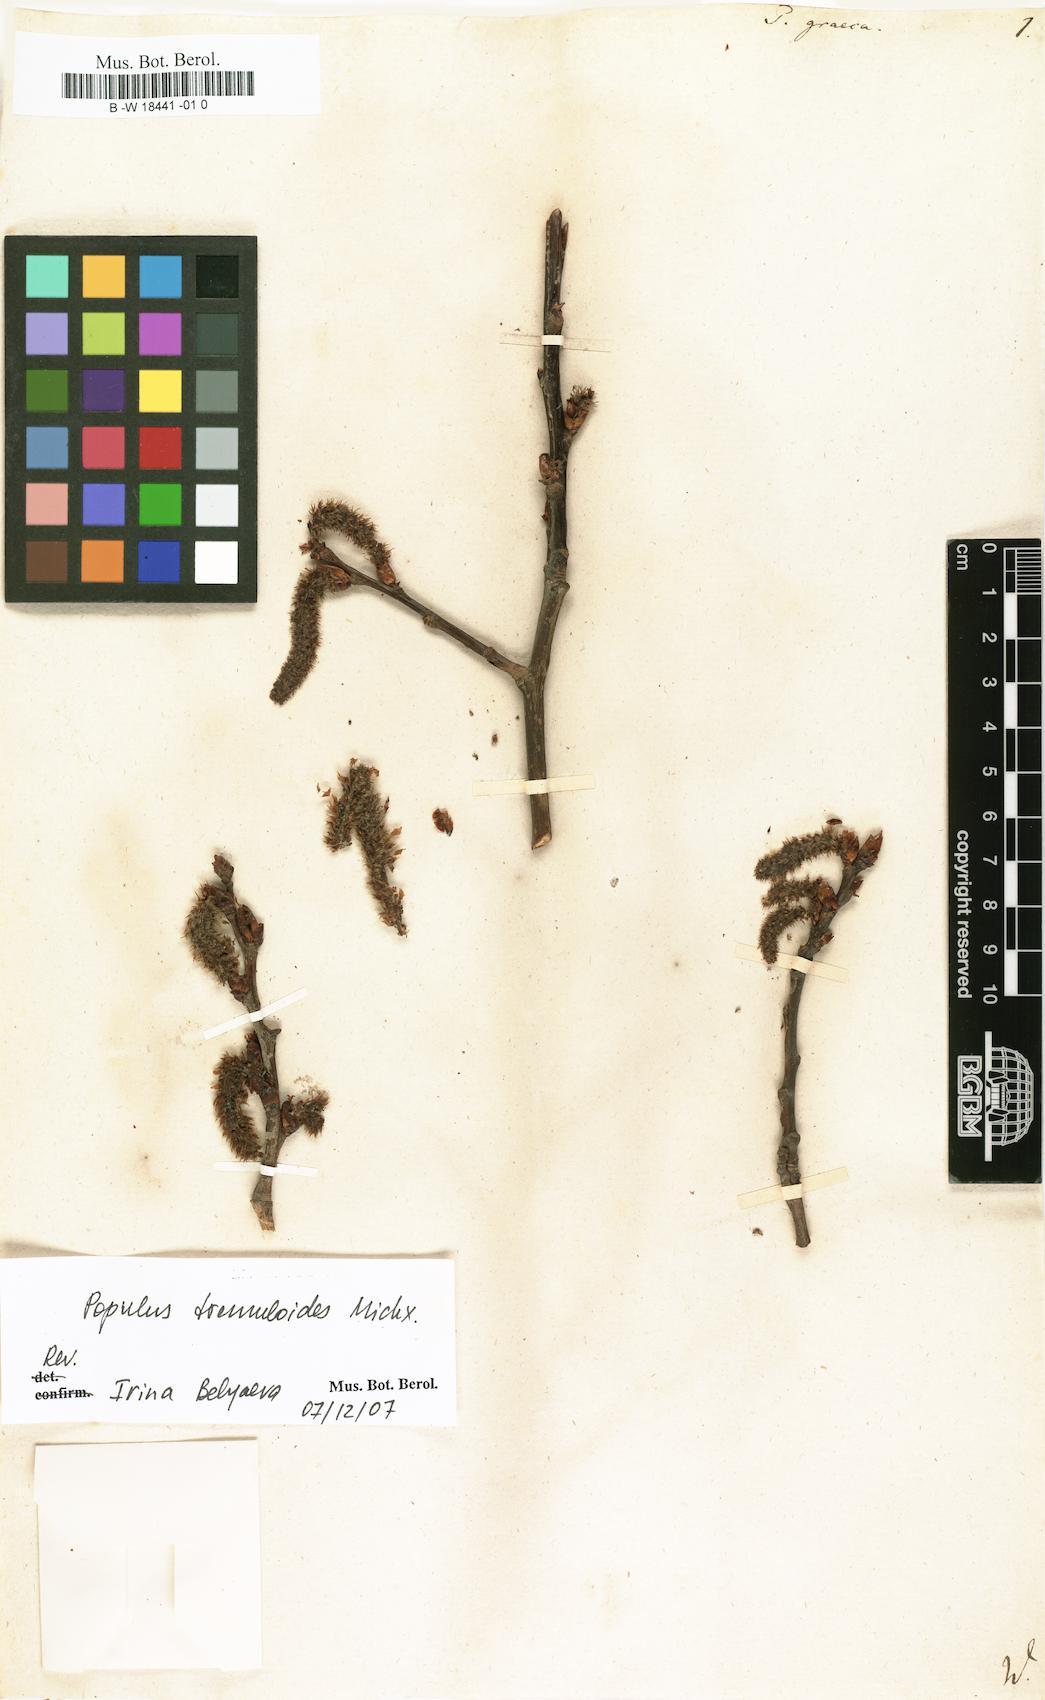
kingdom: Plantae
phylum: Tracheophyta
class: Magnoliopsida
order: Malpighiales
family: Salicaceae
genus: Populus
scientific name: Populus tremuloides
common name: Quaking aspen
